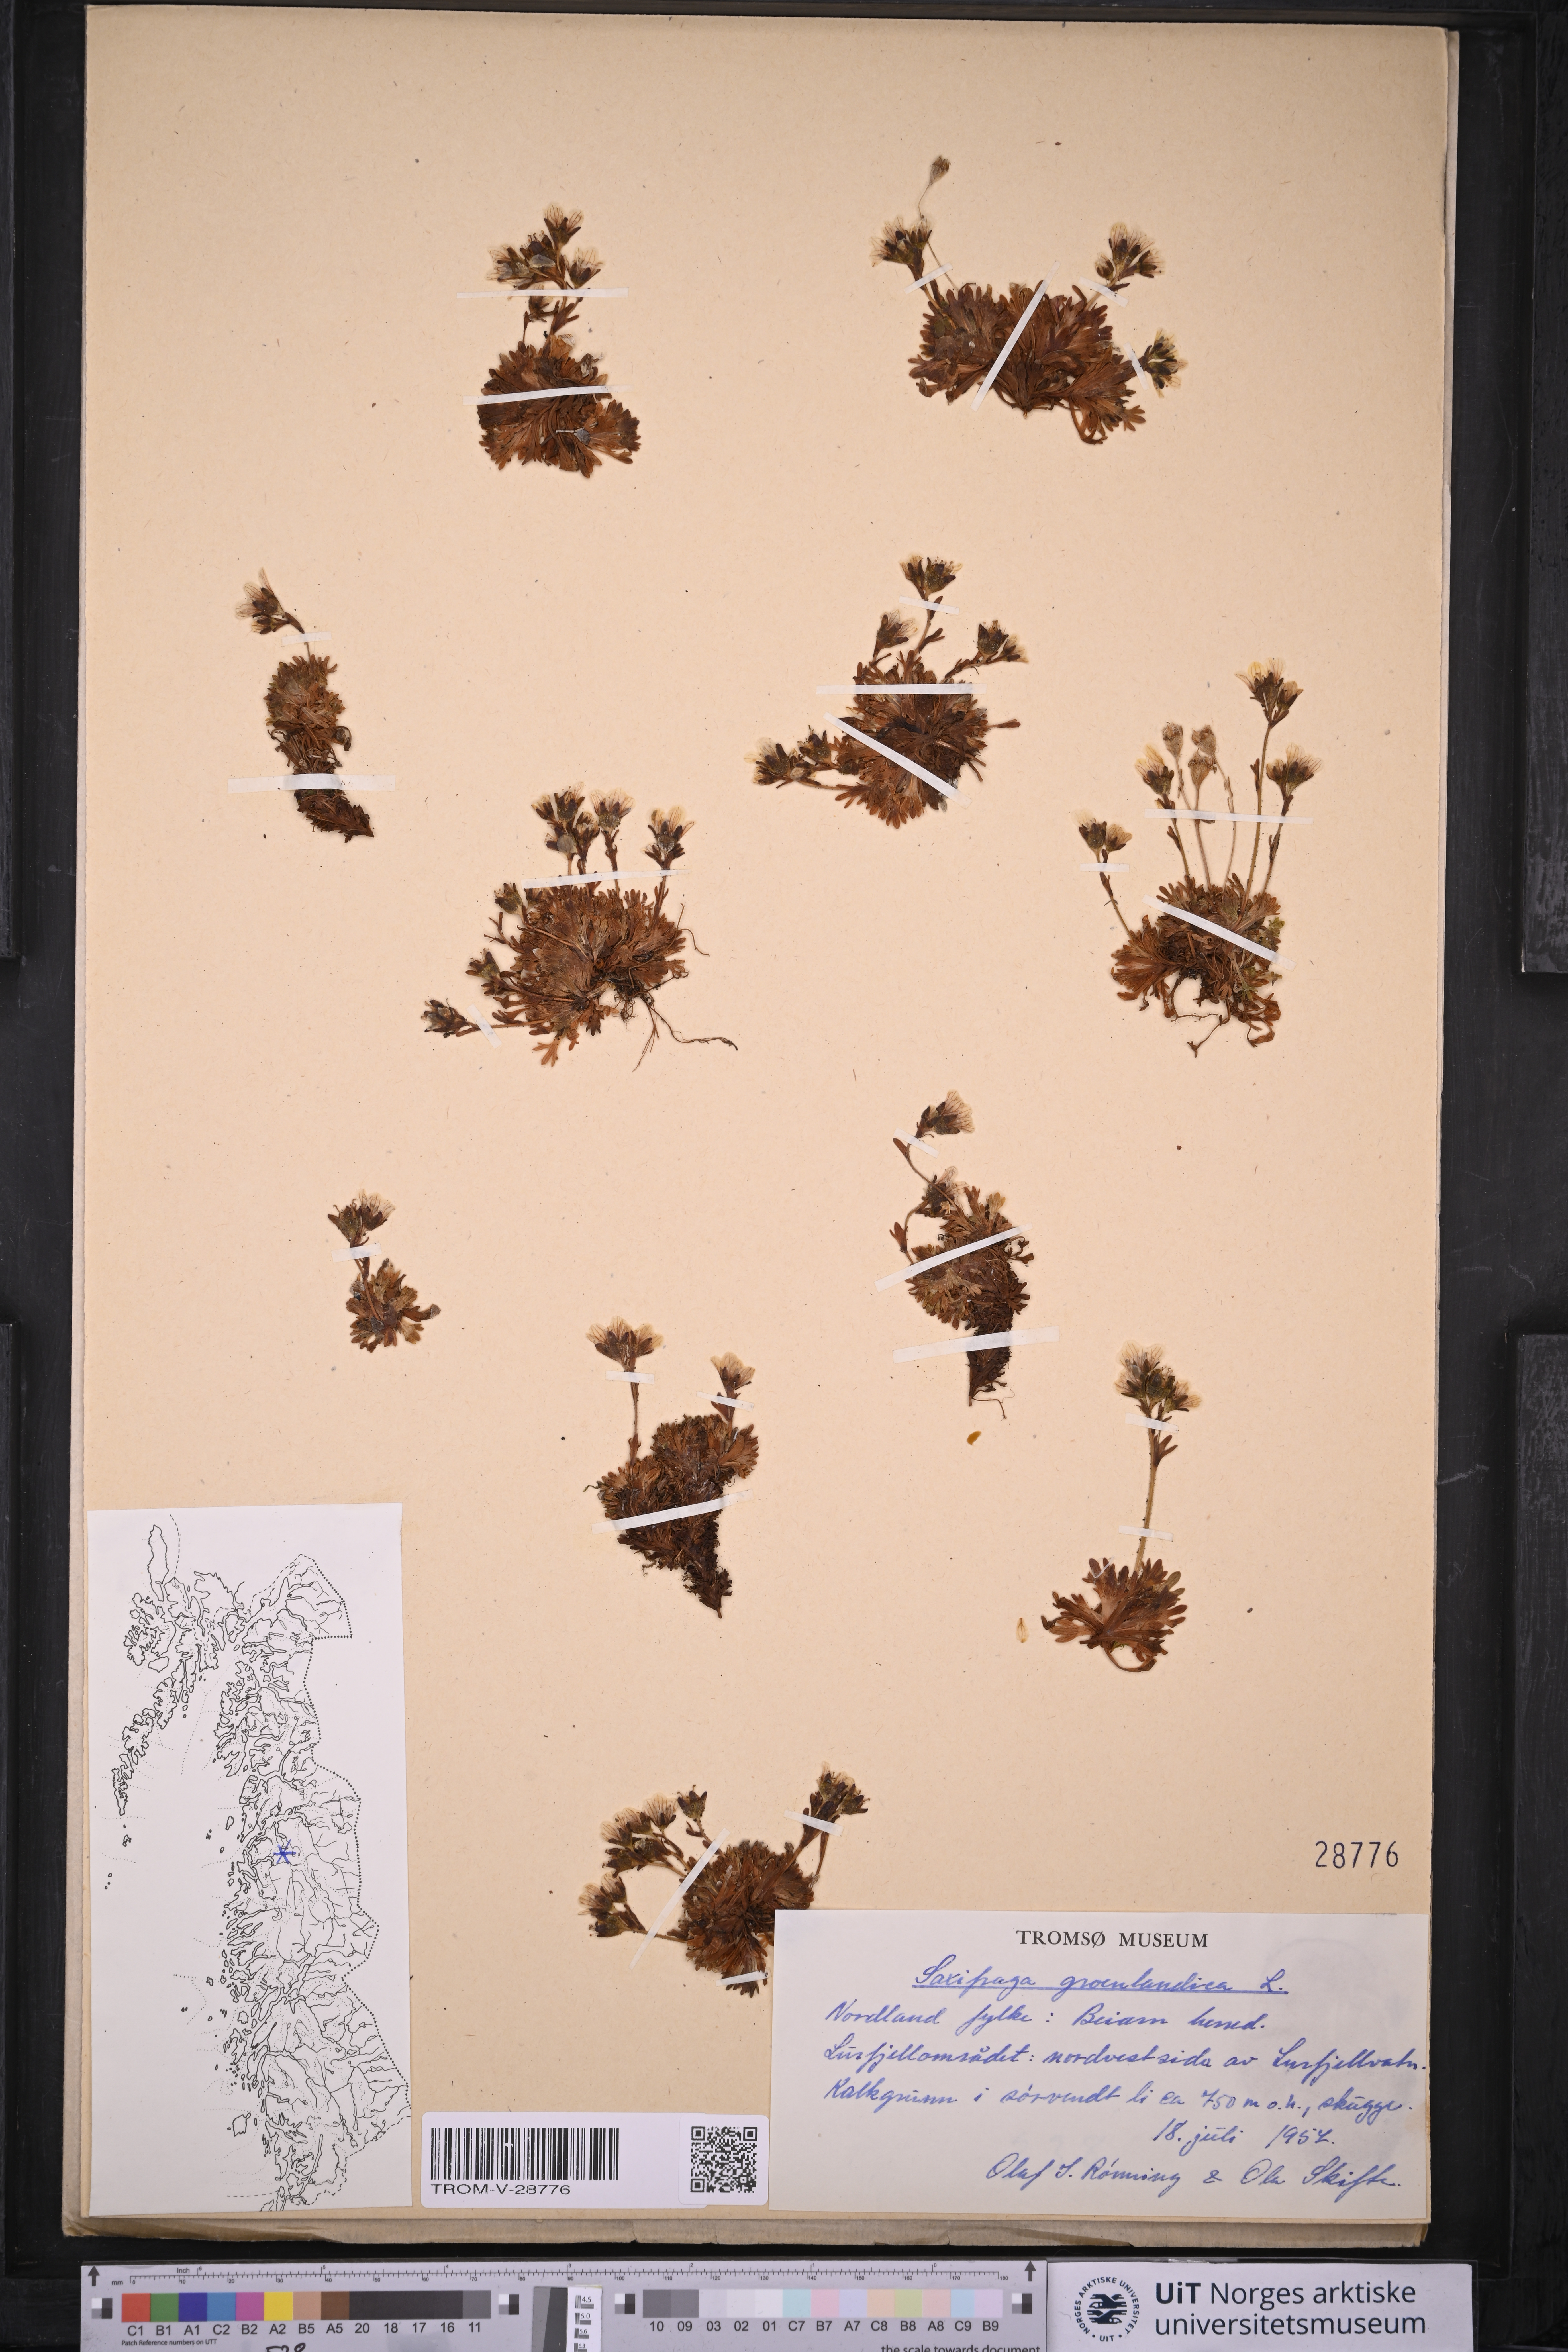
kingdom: Plantae
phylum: Tracheophyta
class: Magnoliopsida
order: Saxifragales
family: Saxifragaceae
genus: Saxifraga
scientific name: Saxifraga cespitosa
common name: Tufted saxifrage
